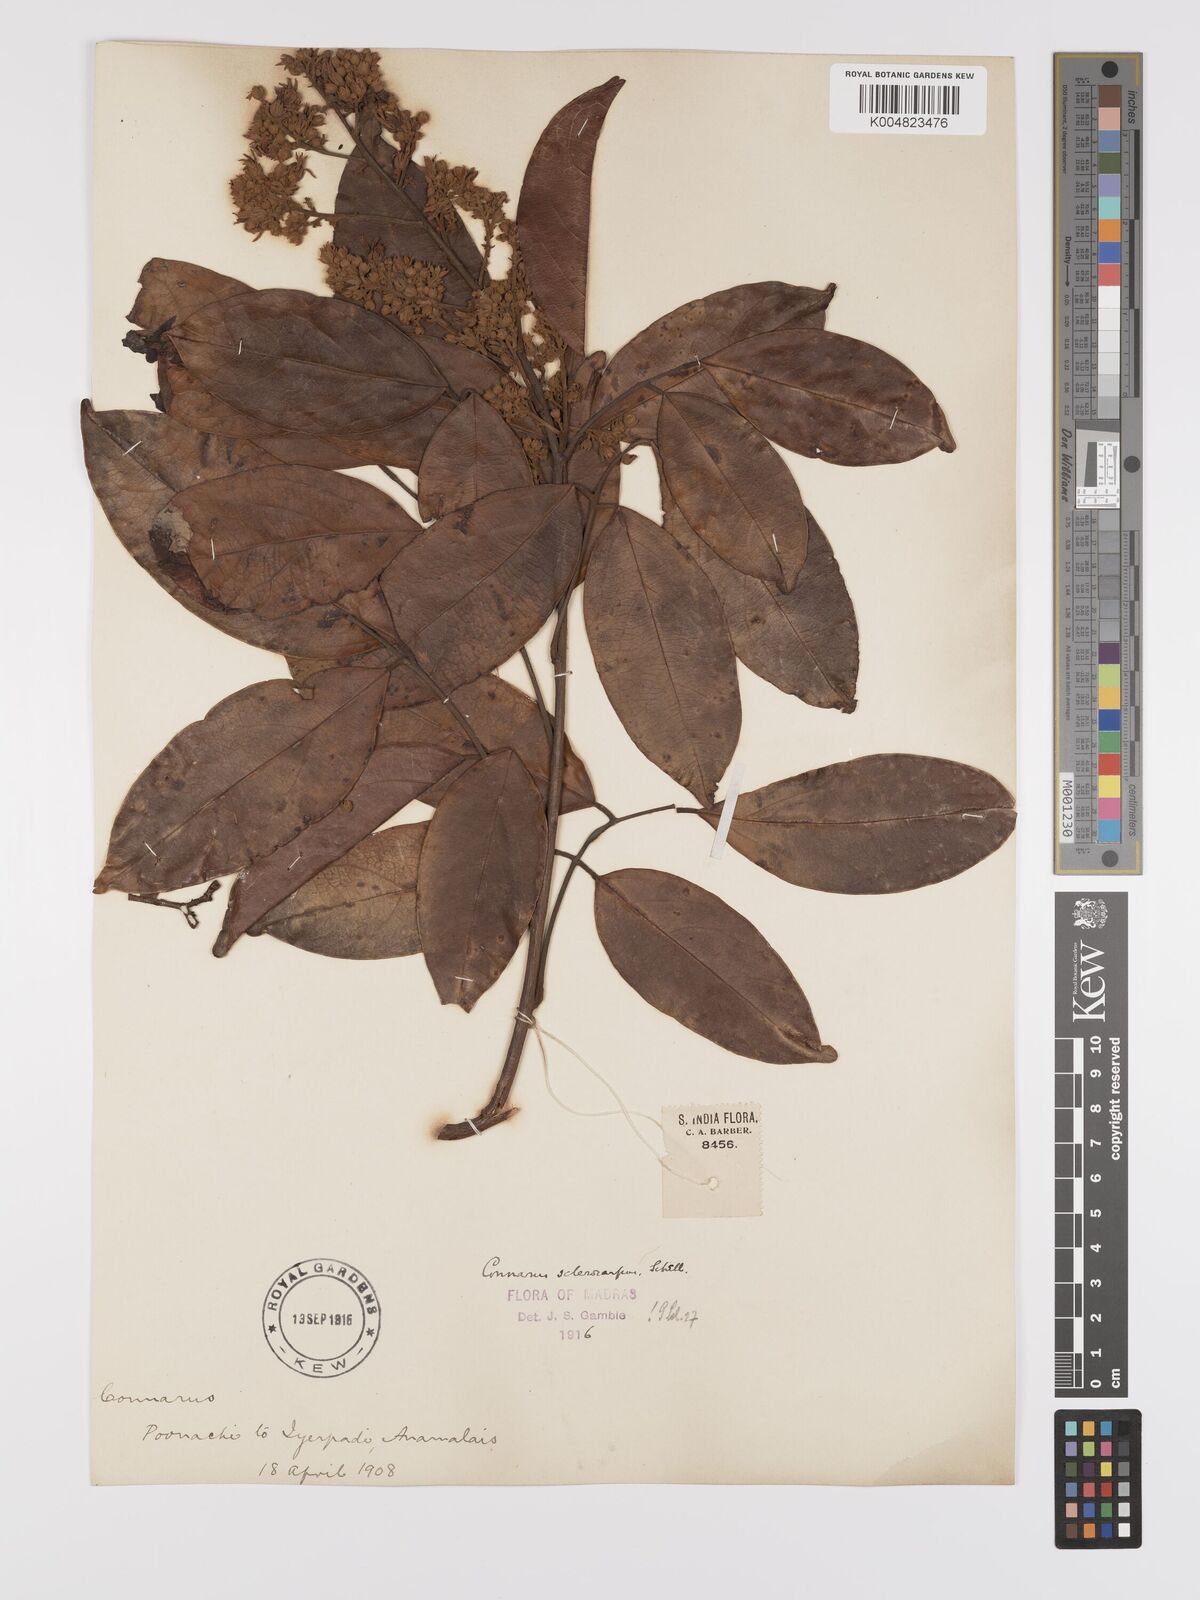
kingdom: Plantae
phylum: Tracheophyta
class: Magnoliopsida
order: Oxalidales
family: Connaraceae
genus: Connarus
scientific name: Connarus sclerocarpus
